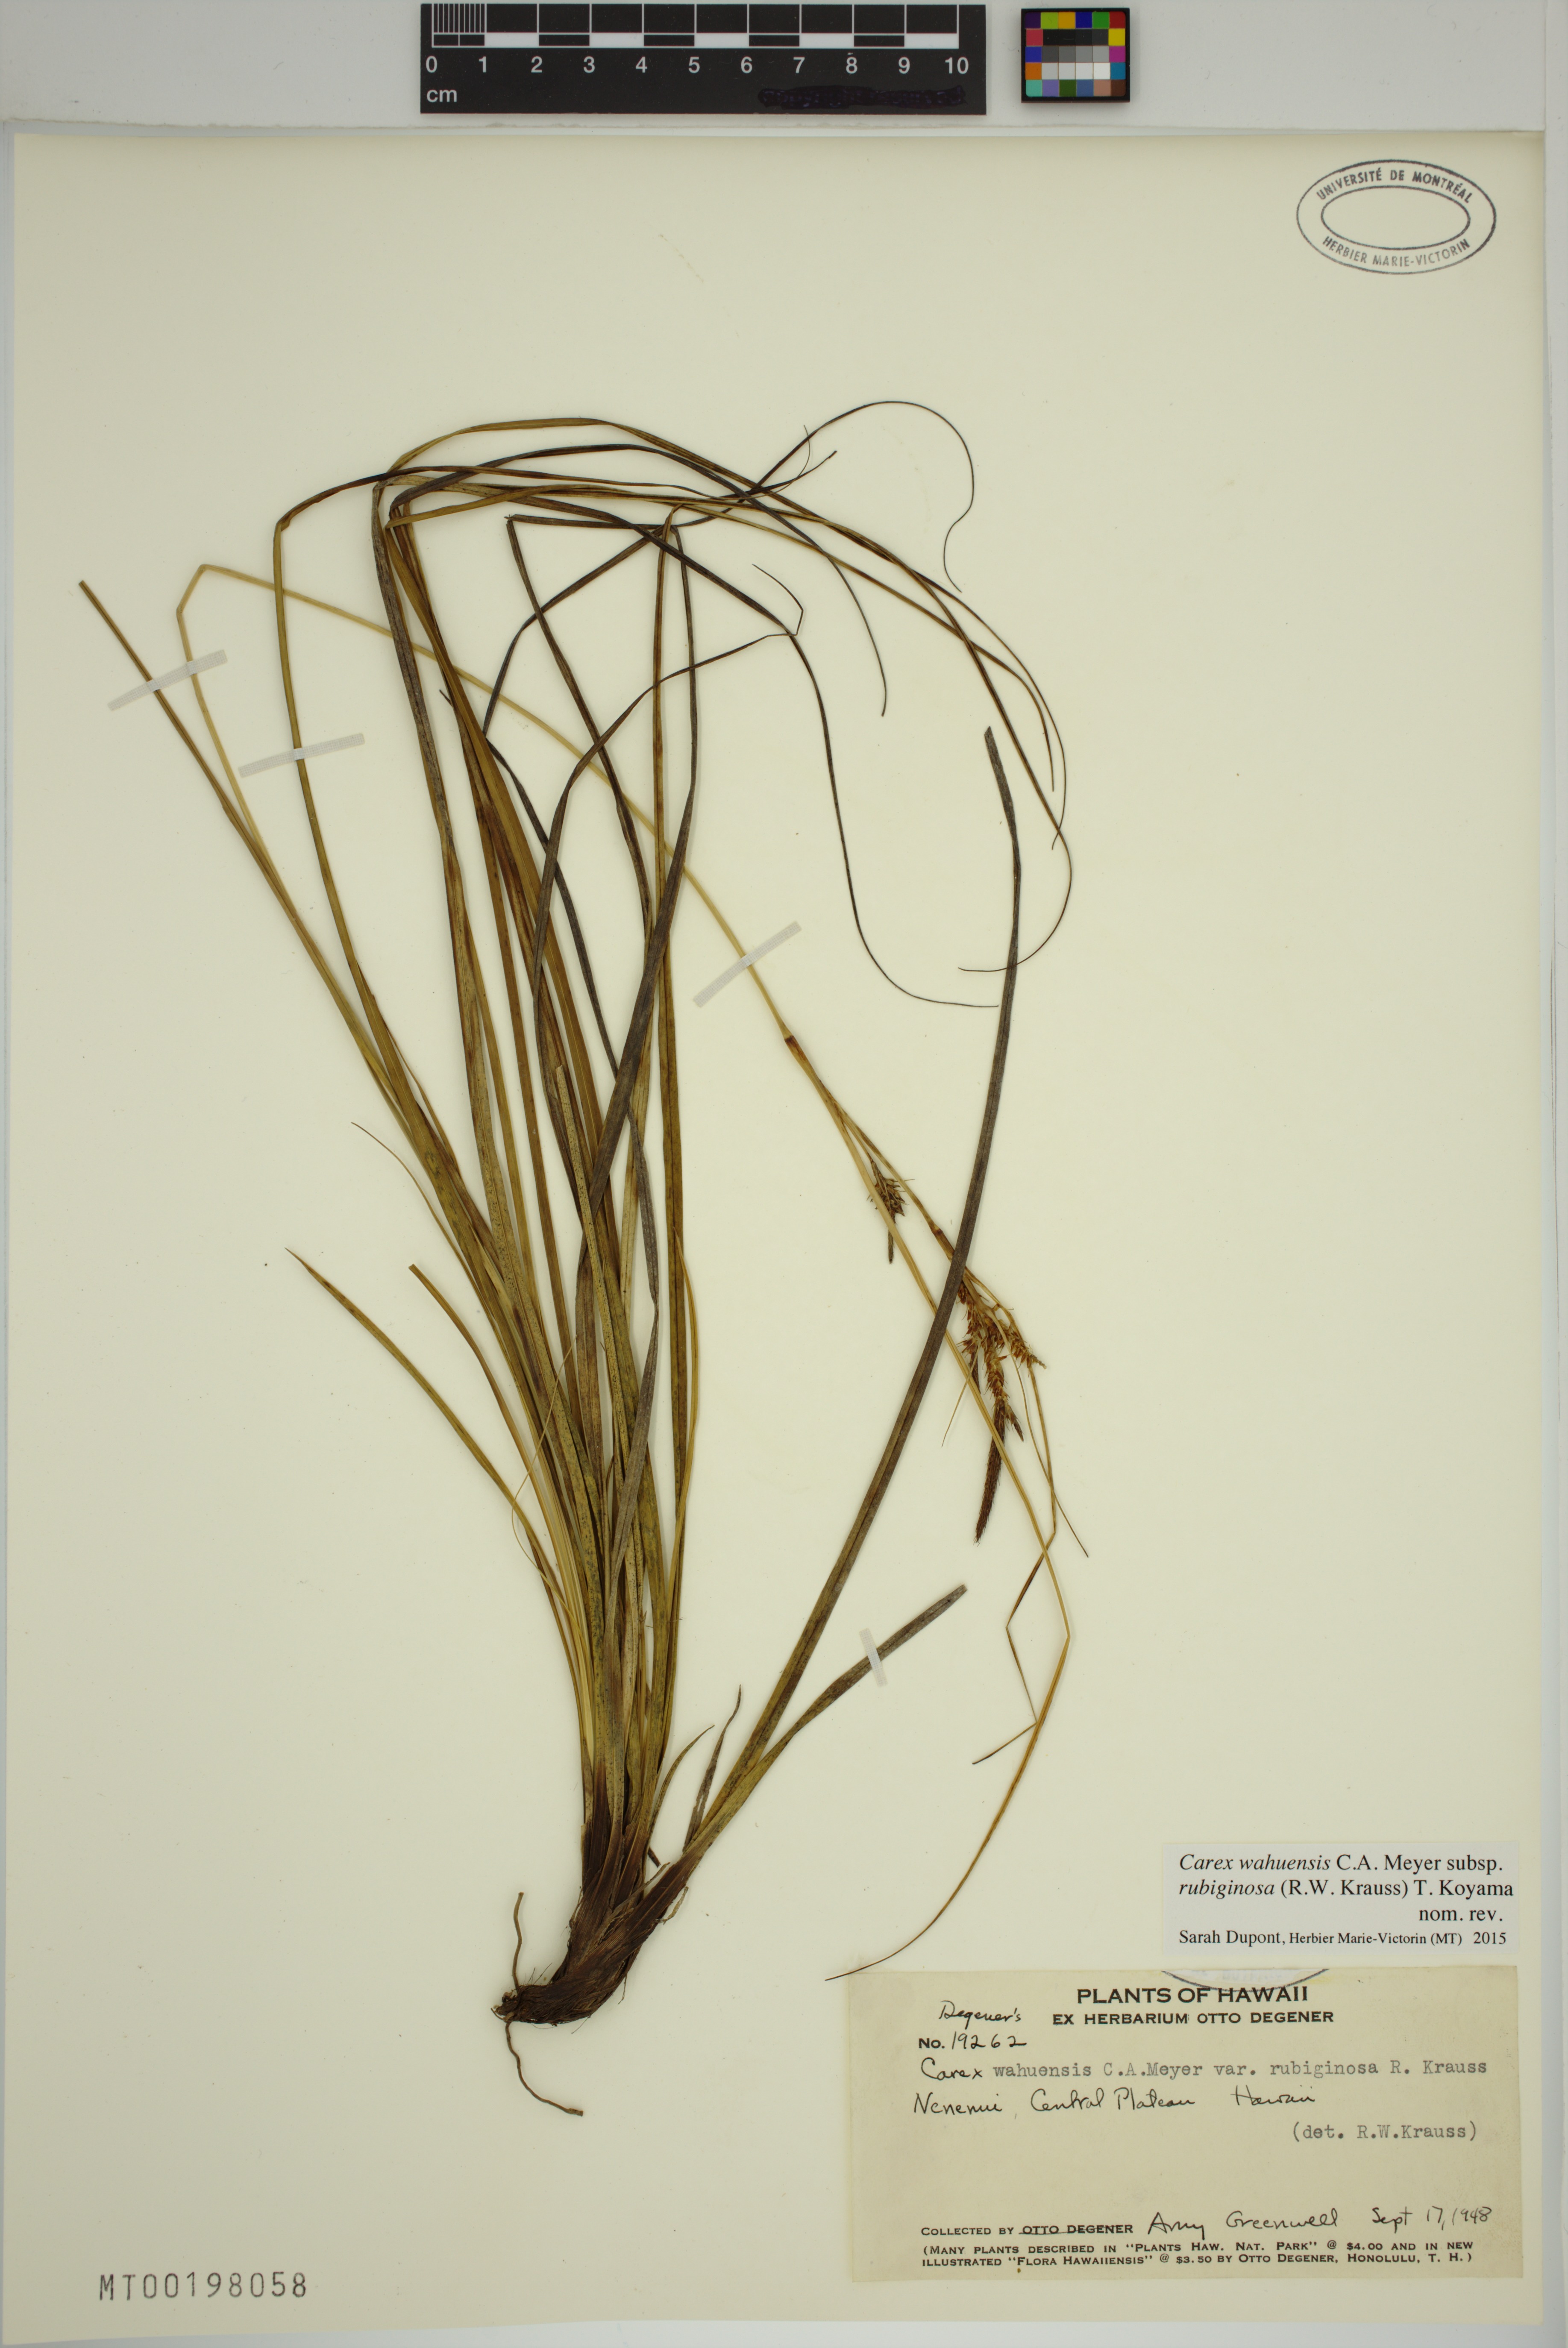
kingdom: Plantae
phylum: Tracheophyta
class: Liliopsida
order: Poales
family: Cyperaceae
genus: Carex
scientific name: Carex wahuensis
